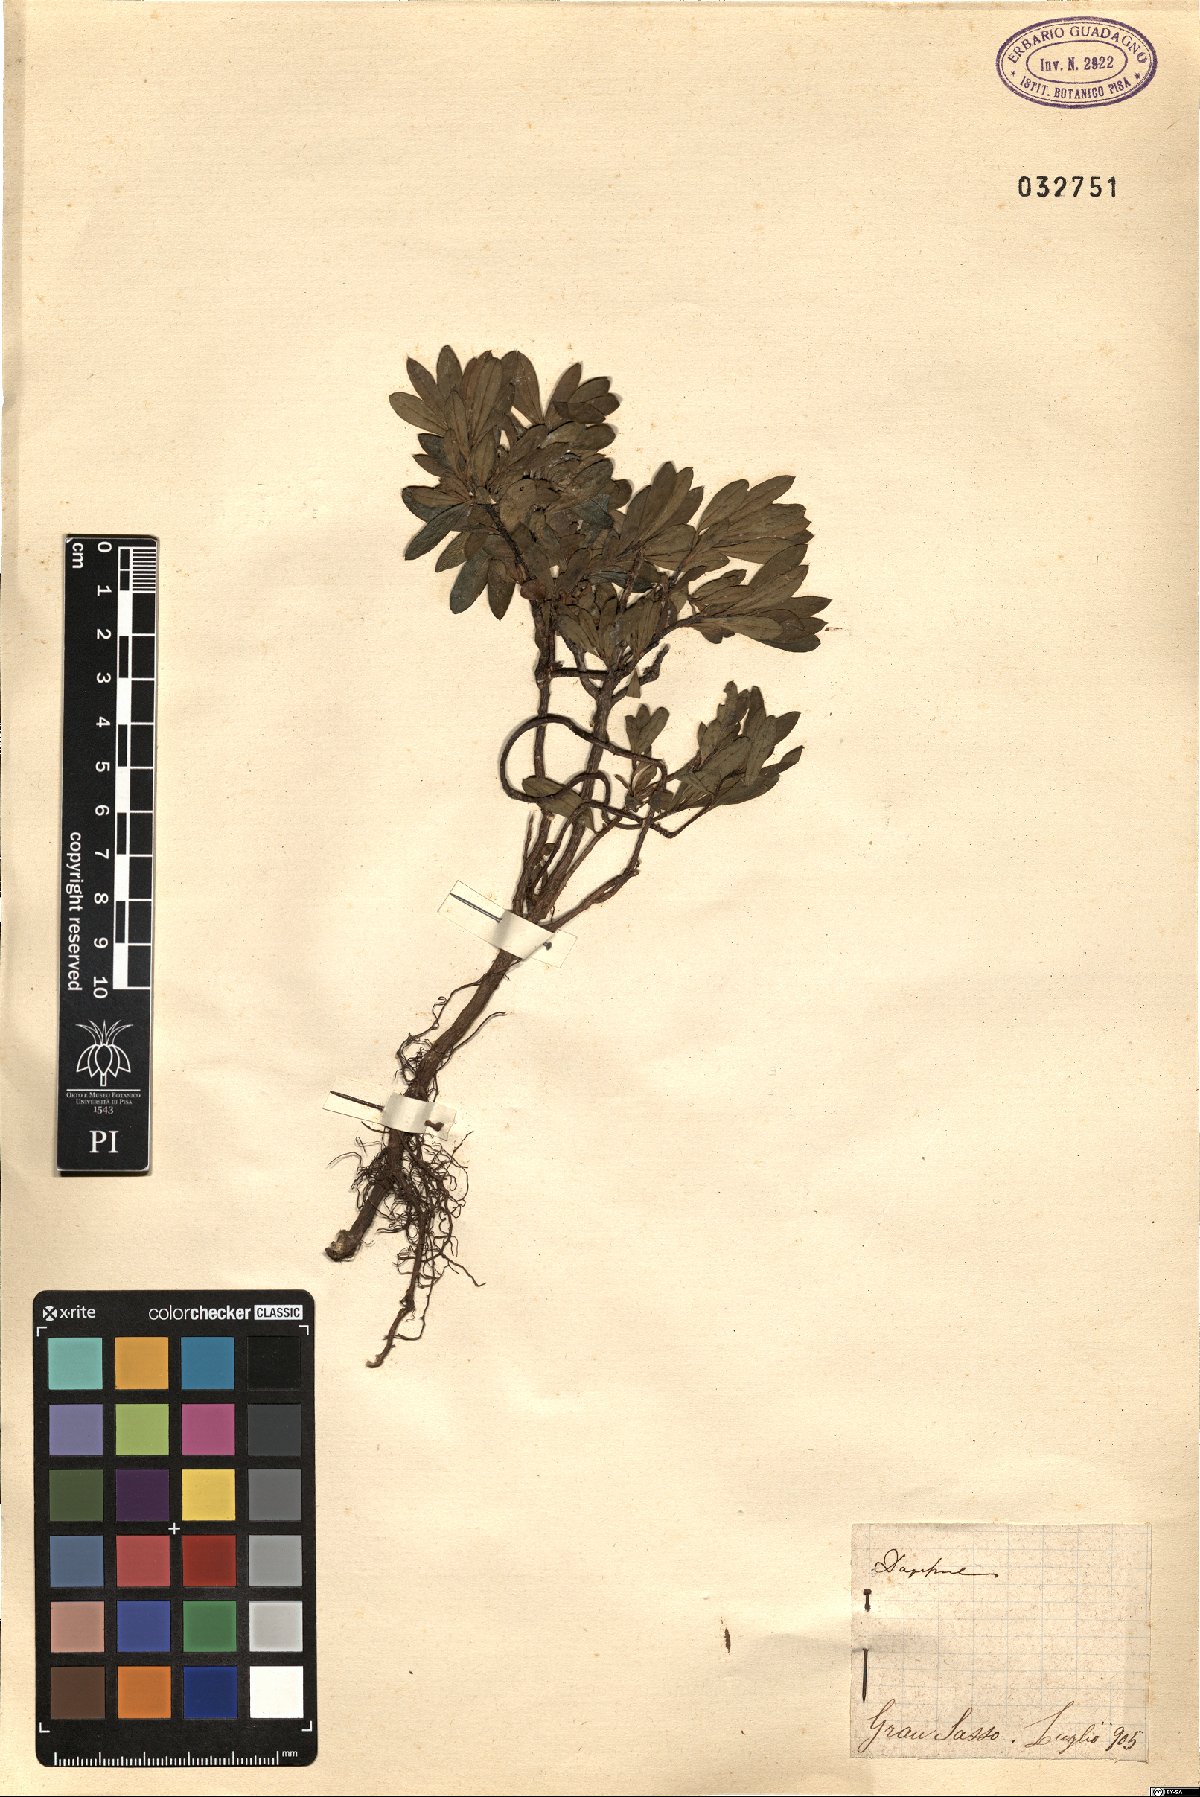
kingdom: Plantae
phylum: Tracheophyta
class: Magnoliopsida
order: Malvales
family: Thymelaeaceae
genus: Daphne
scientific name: Daphne
